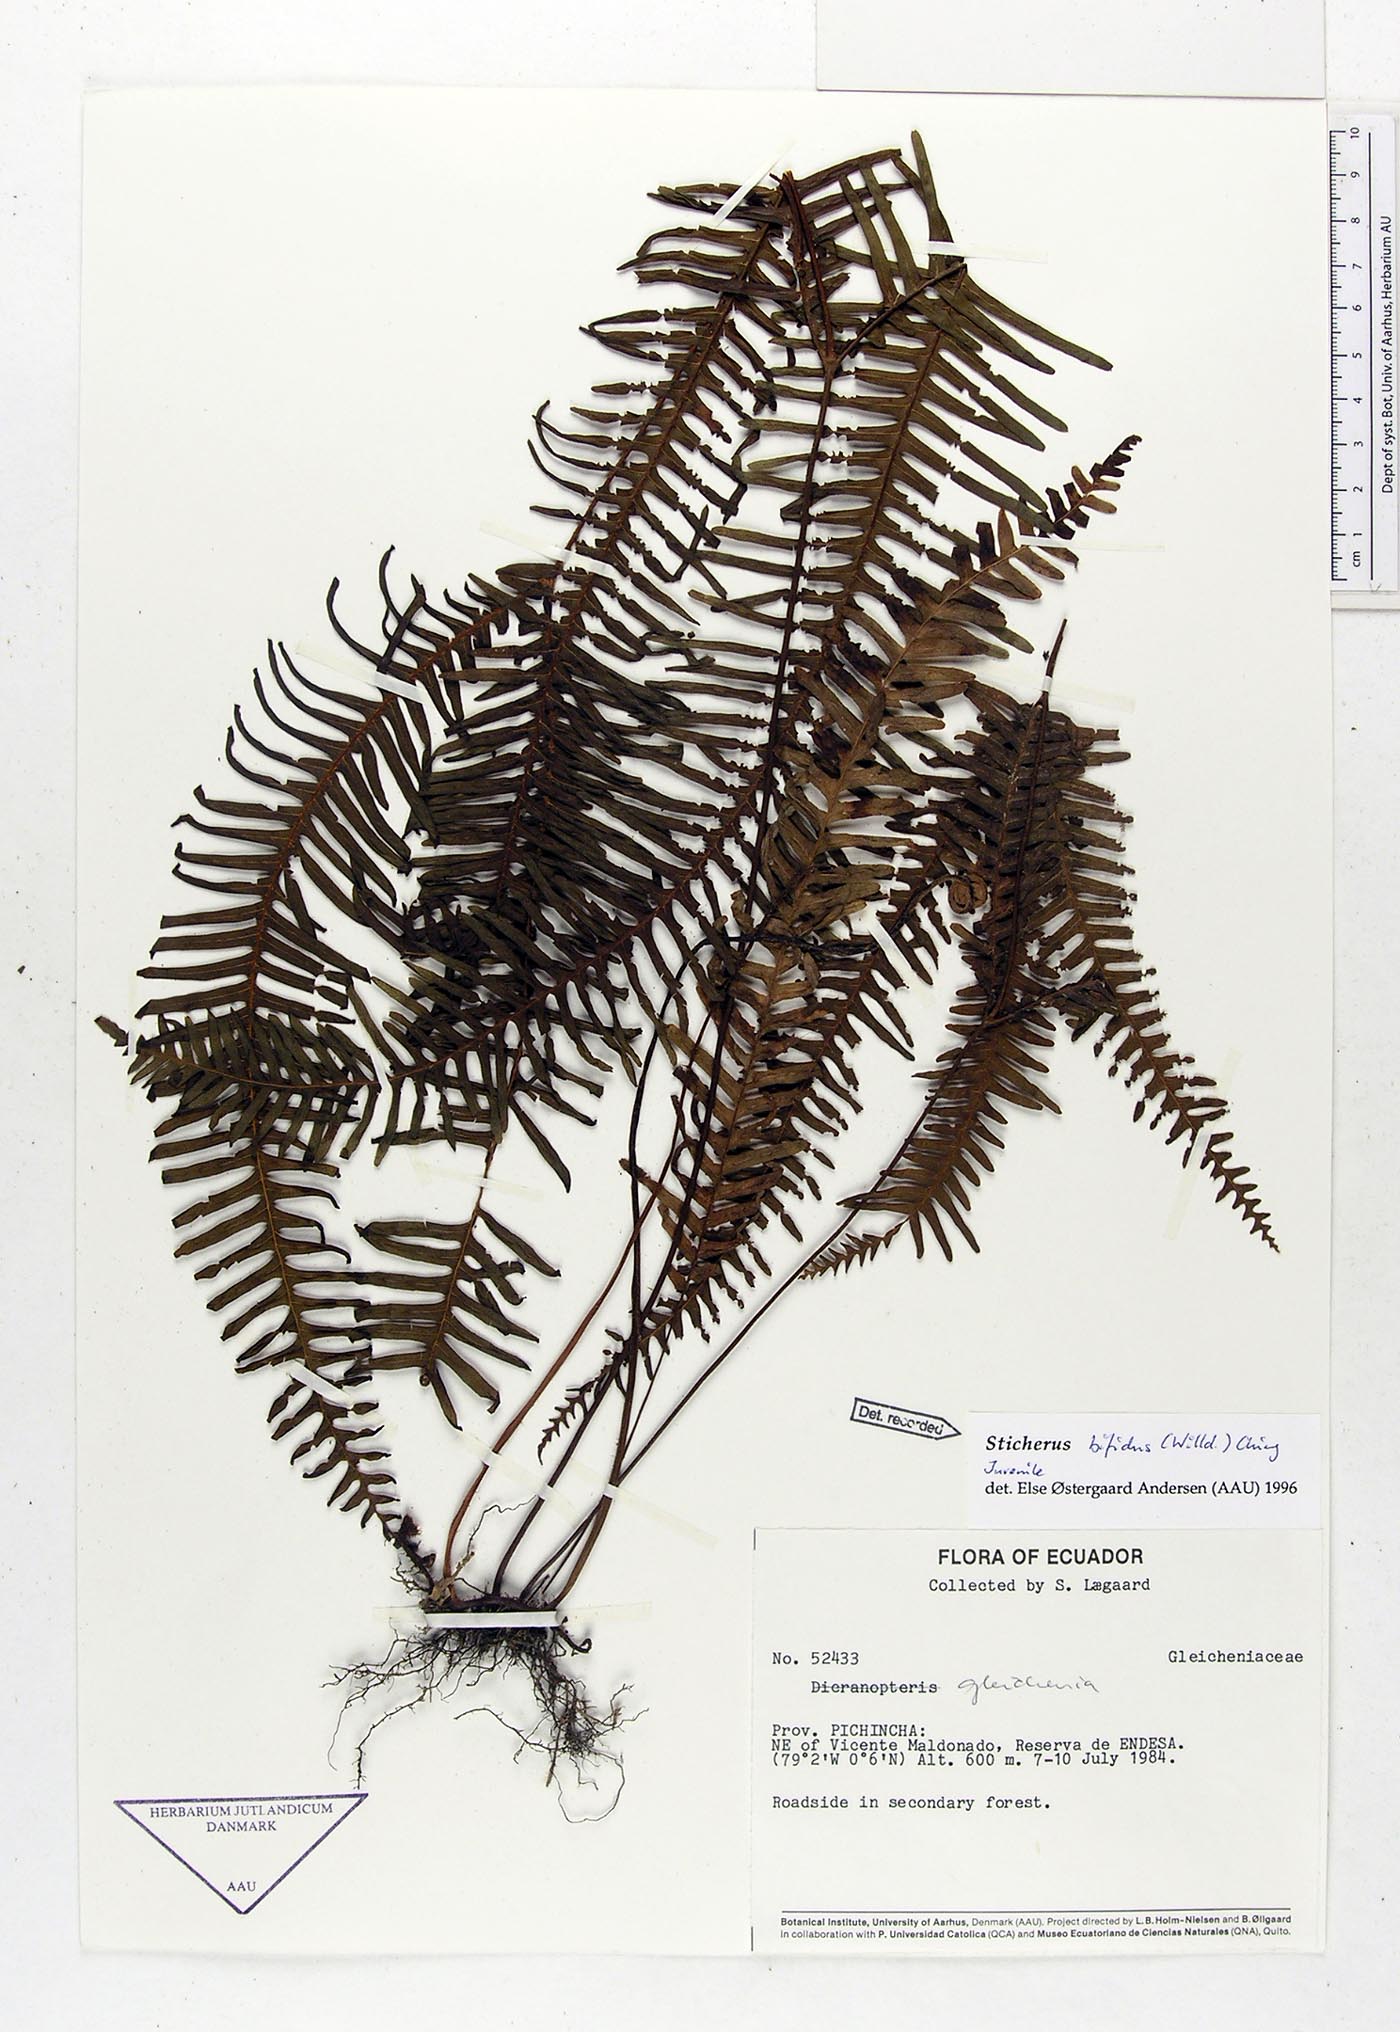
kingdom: Plantae
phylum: Tracheophyta
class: Polypodiopsida
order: Gleicheniales
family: Gleicheniaceae
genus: Sticherus
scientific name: Sticherus bifidus
